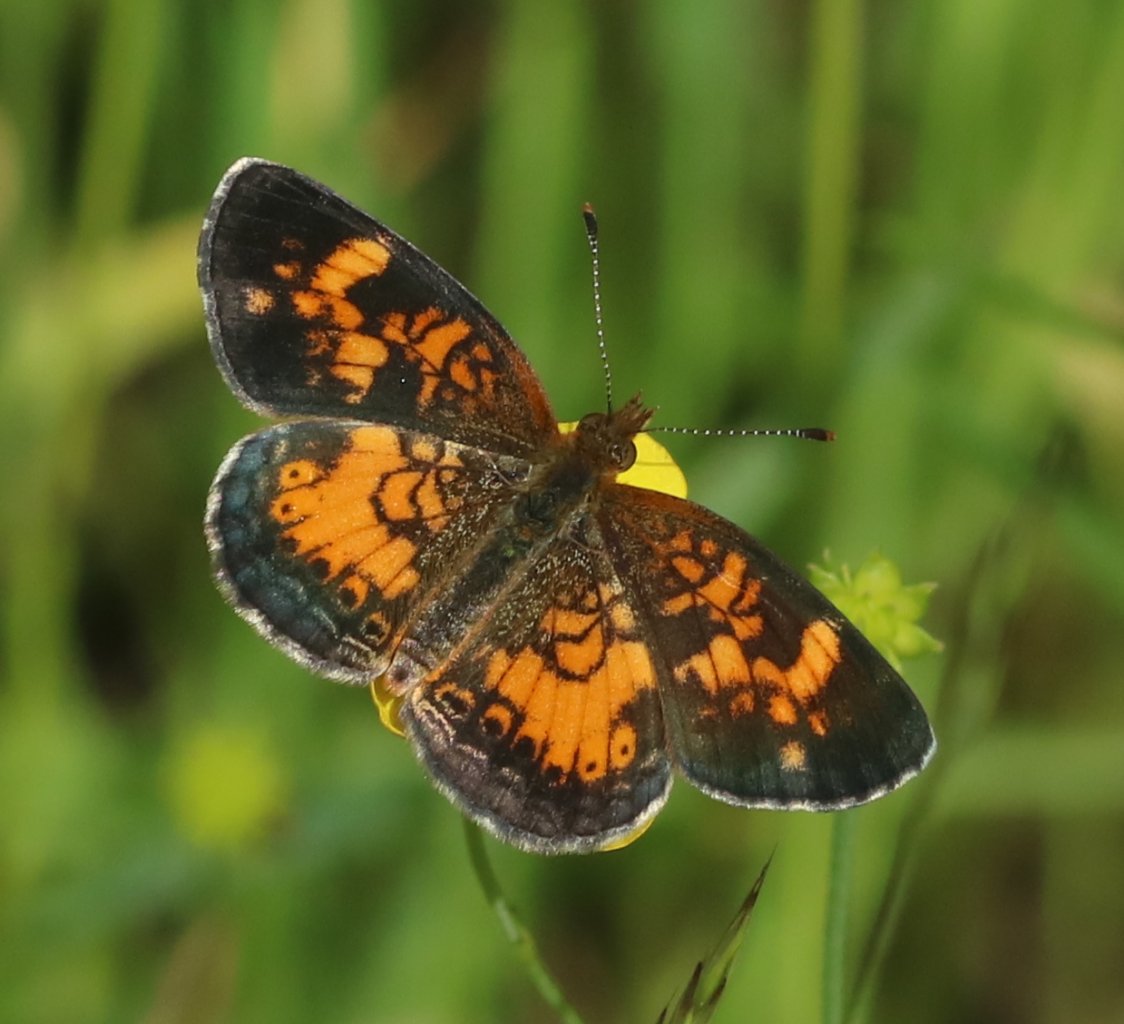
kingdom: Animalia
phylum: Arthropoda
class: Insecta
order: Lepidoptera
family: Nymphalidae
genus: Phyciodes
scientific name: Phyciodes tharos
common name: Northern Crescent
